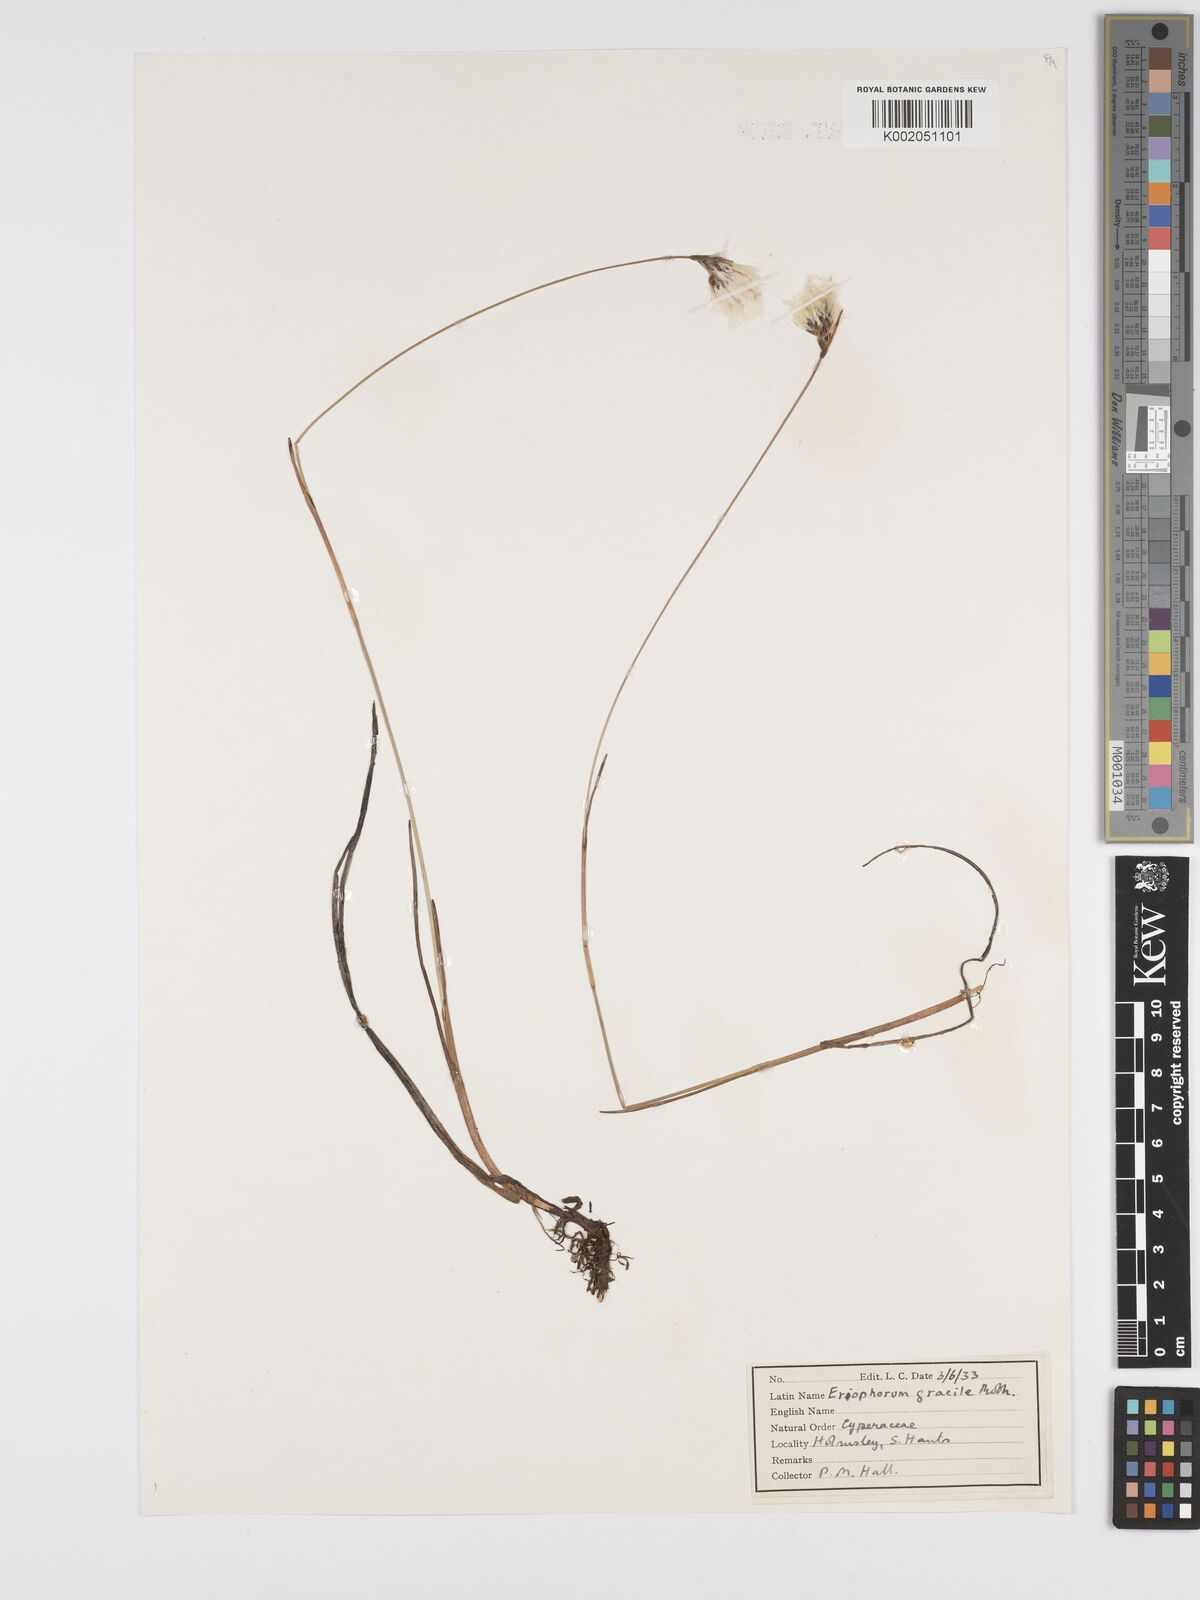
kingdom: Plantae
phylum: Tracheophyta
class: Liliopsida
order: Poales
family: Cyperaceae
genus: Eriophorum
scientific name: Eriophorum gracile
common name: Slender cottongrass
